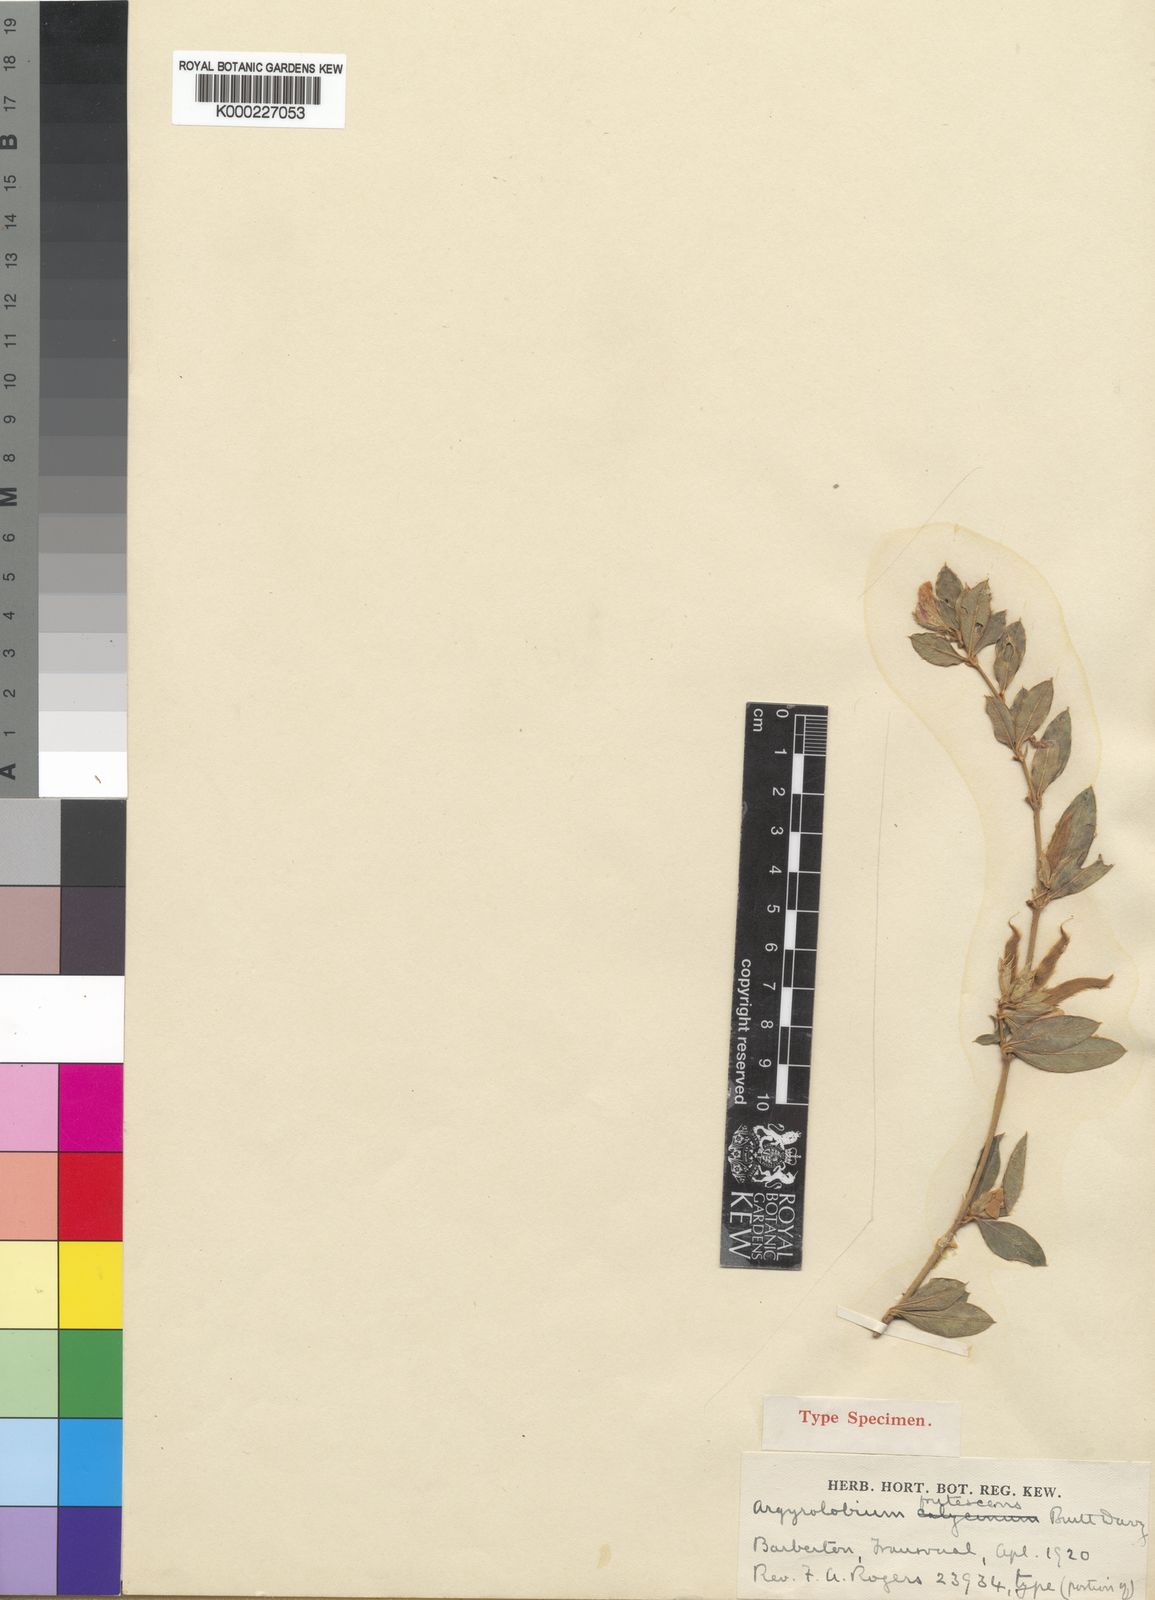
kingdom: Plantae
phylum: Tracheophyta
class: Magnoliopsida
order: Fabales
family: Fabaceae
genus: Argyrolobium
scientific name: Argyrolobium frutescens
